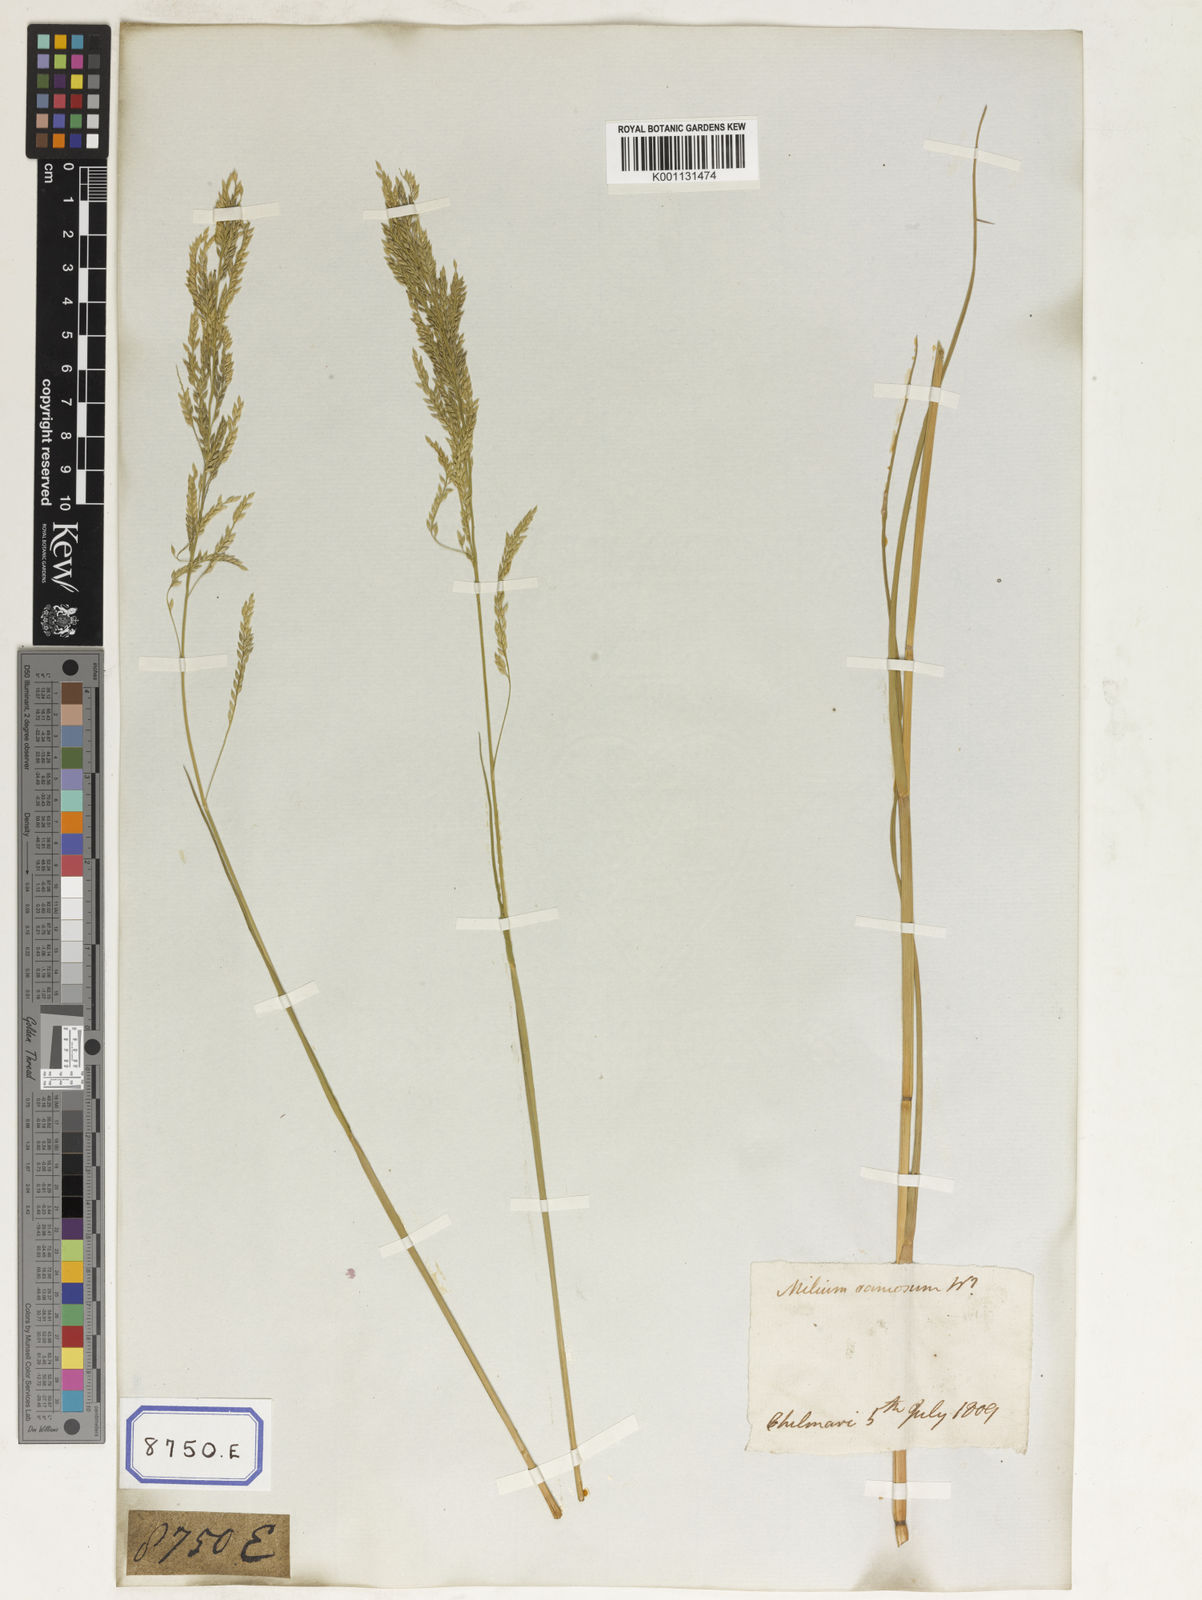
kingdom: Plantae
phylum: Tracheophyta
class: Liliopsida
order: Poales
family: Poaceae
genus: Eriochloa
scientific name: Eriochloa procera
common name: Spring grass
